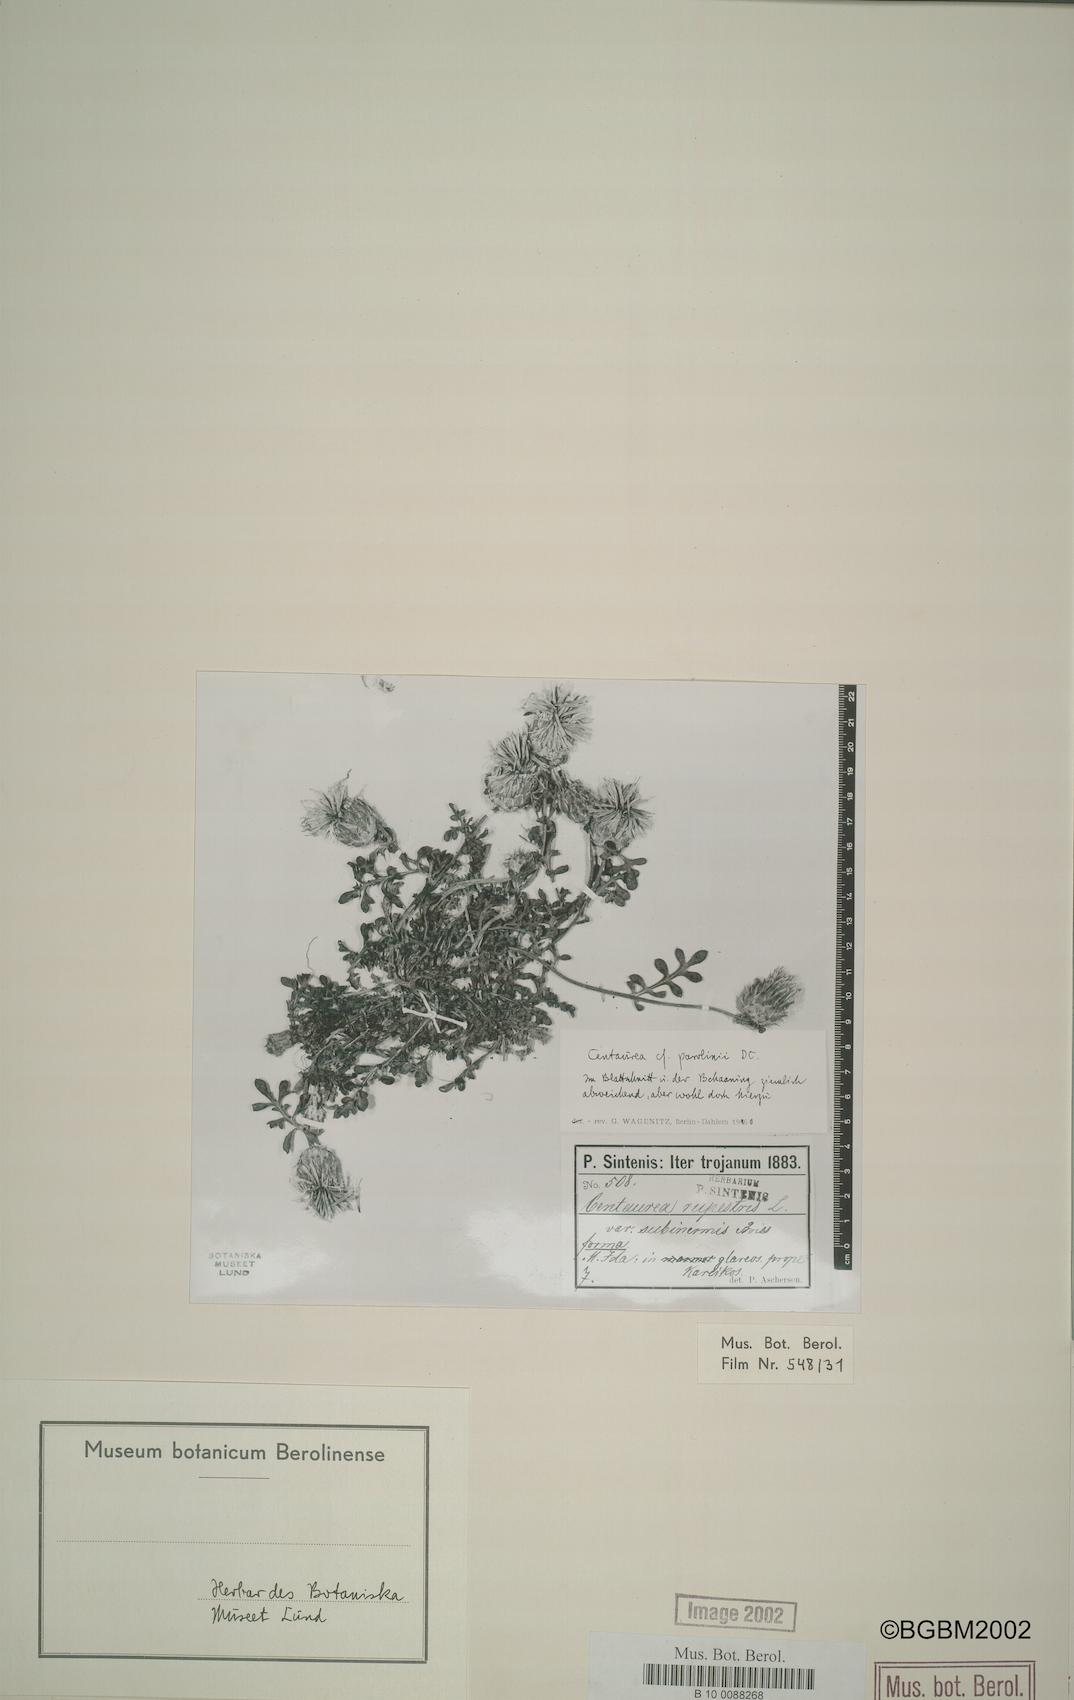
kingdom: Plantae
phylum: Tracheophyta
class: Magnoliopsida
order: Asterales
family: Asteraceae
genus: Centaurea
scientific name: Centaurea athoa
